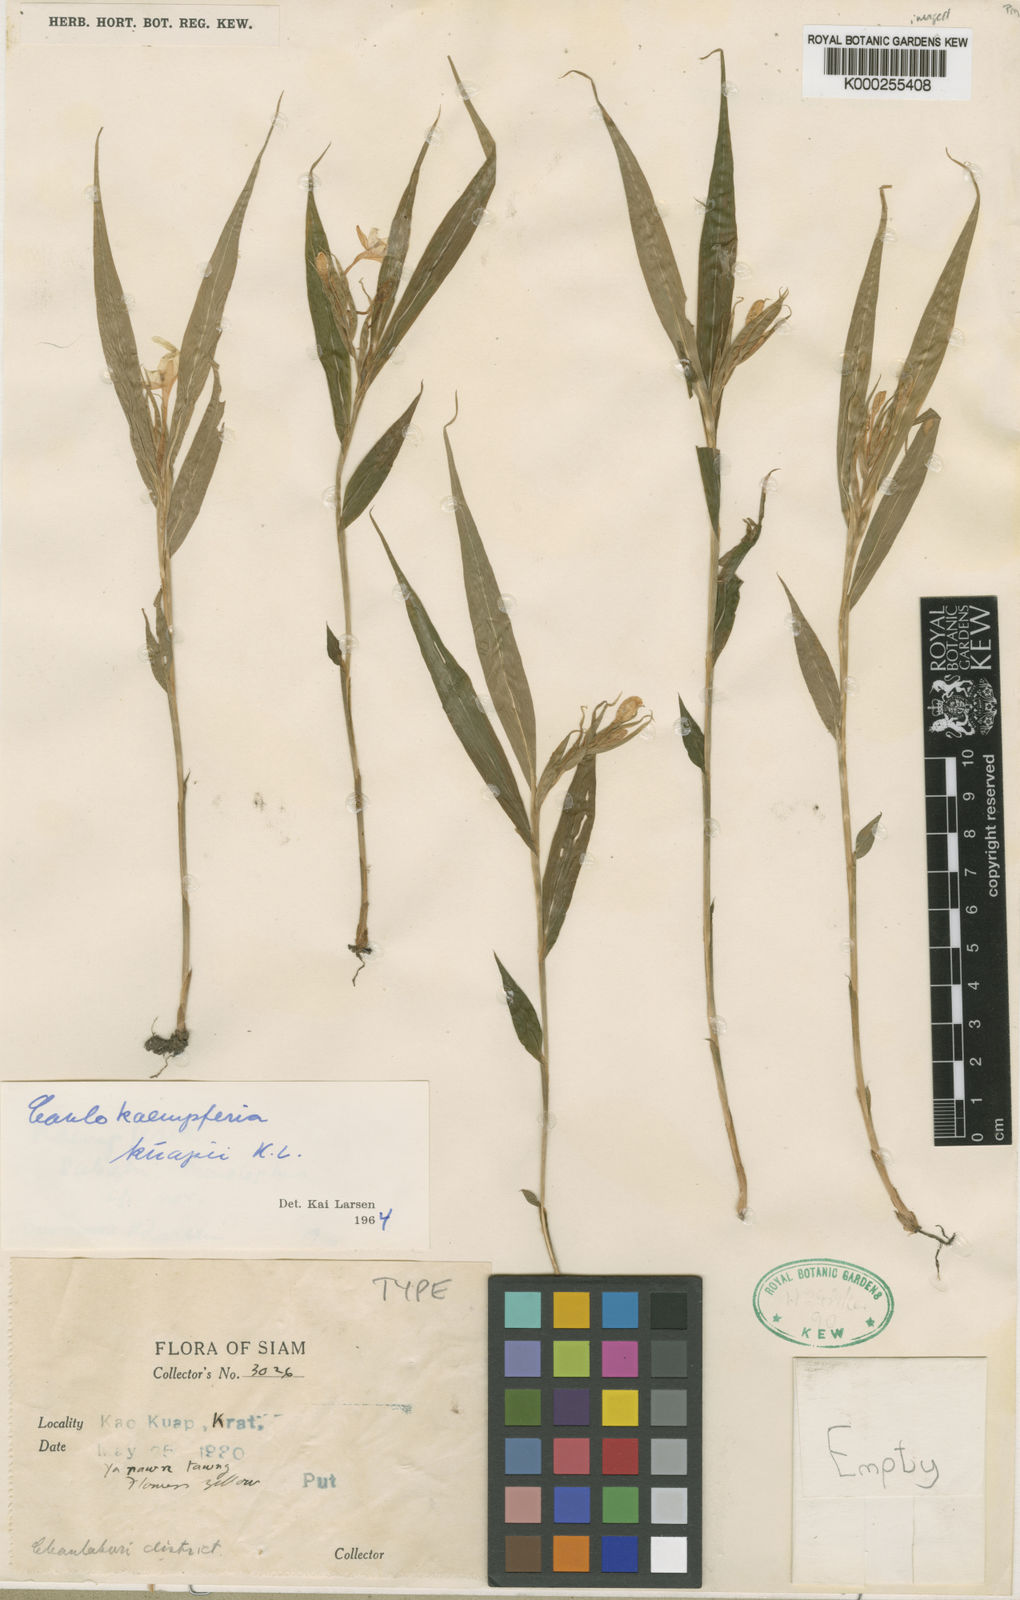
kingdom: Plantae
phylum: Tracheophyta
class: Liliopsida
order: Zingiberales
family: Zingiberaceae
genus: Caulokaempferia
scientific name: Caulokaempferia kuapii
